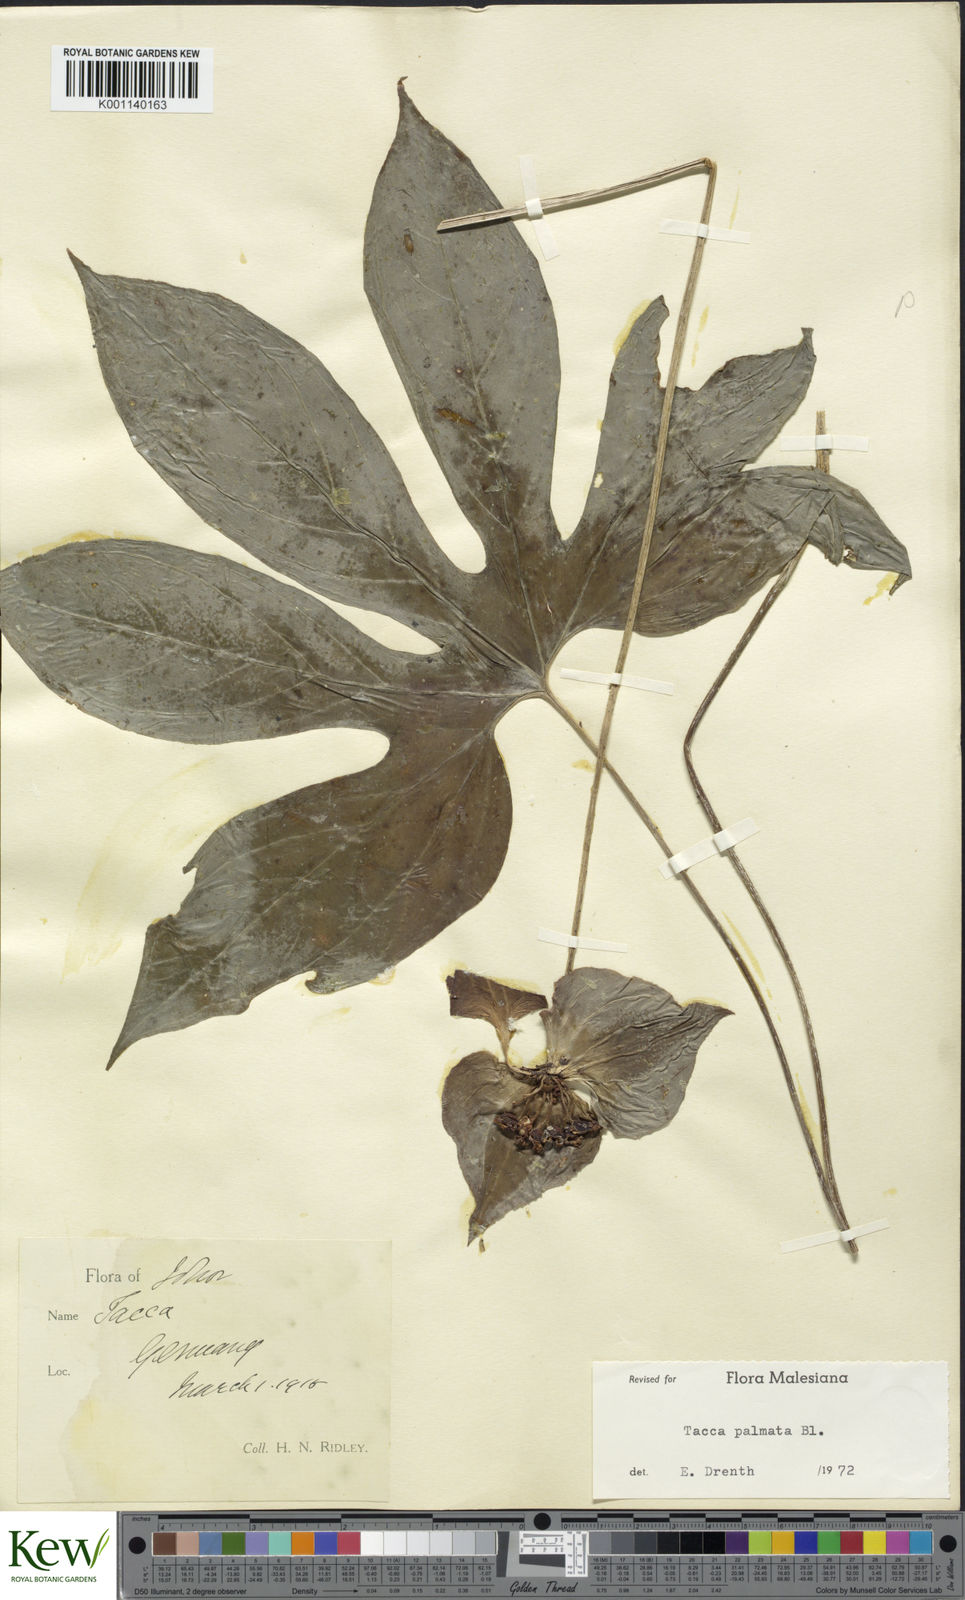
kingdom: Plantae
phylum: Tracheophyta
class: Liliopsida
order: Dioscoreales
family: Dioscoreaceae
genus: Tacca
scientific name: Tacca palmata
